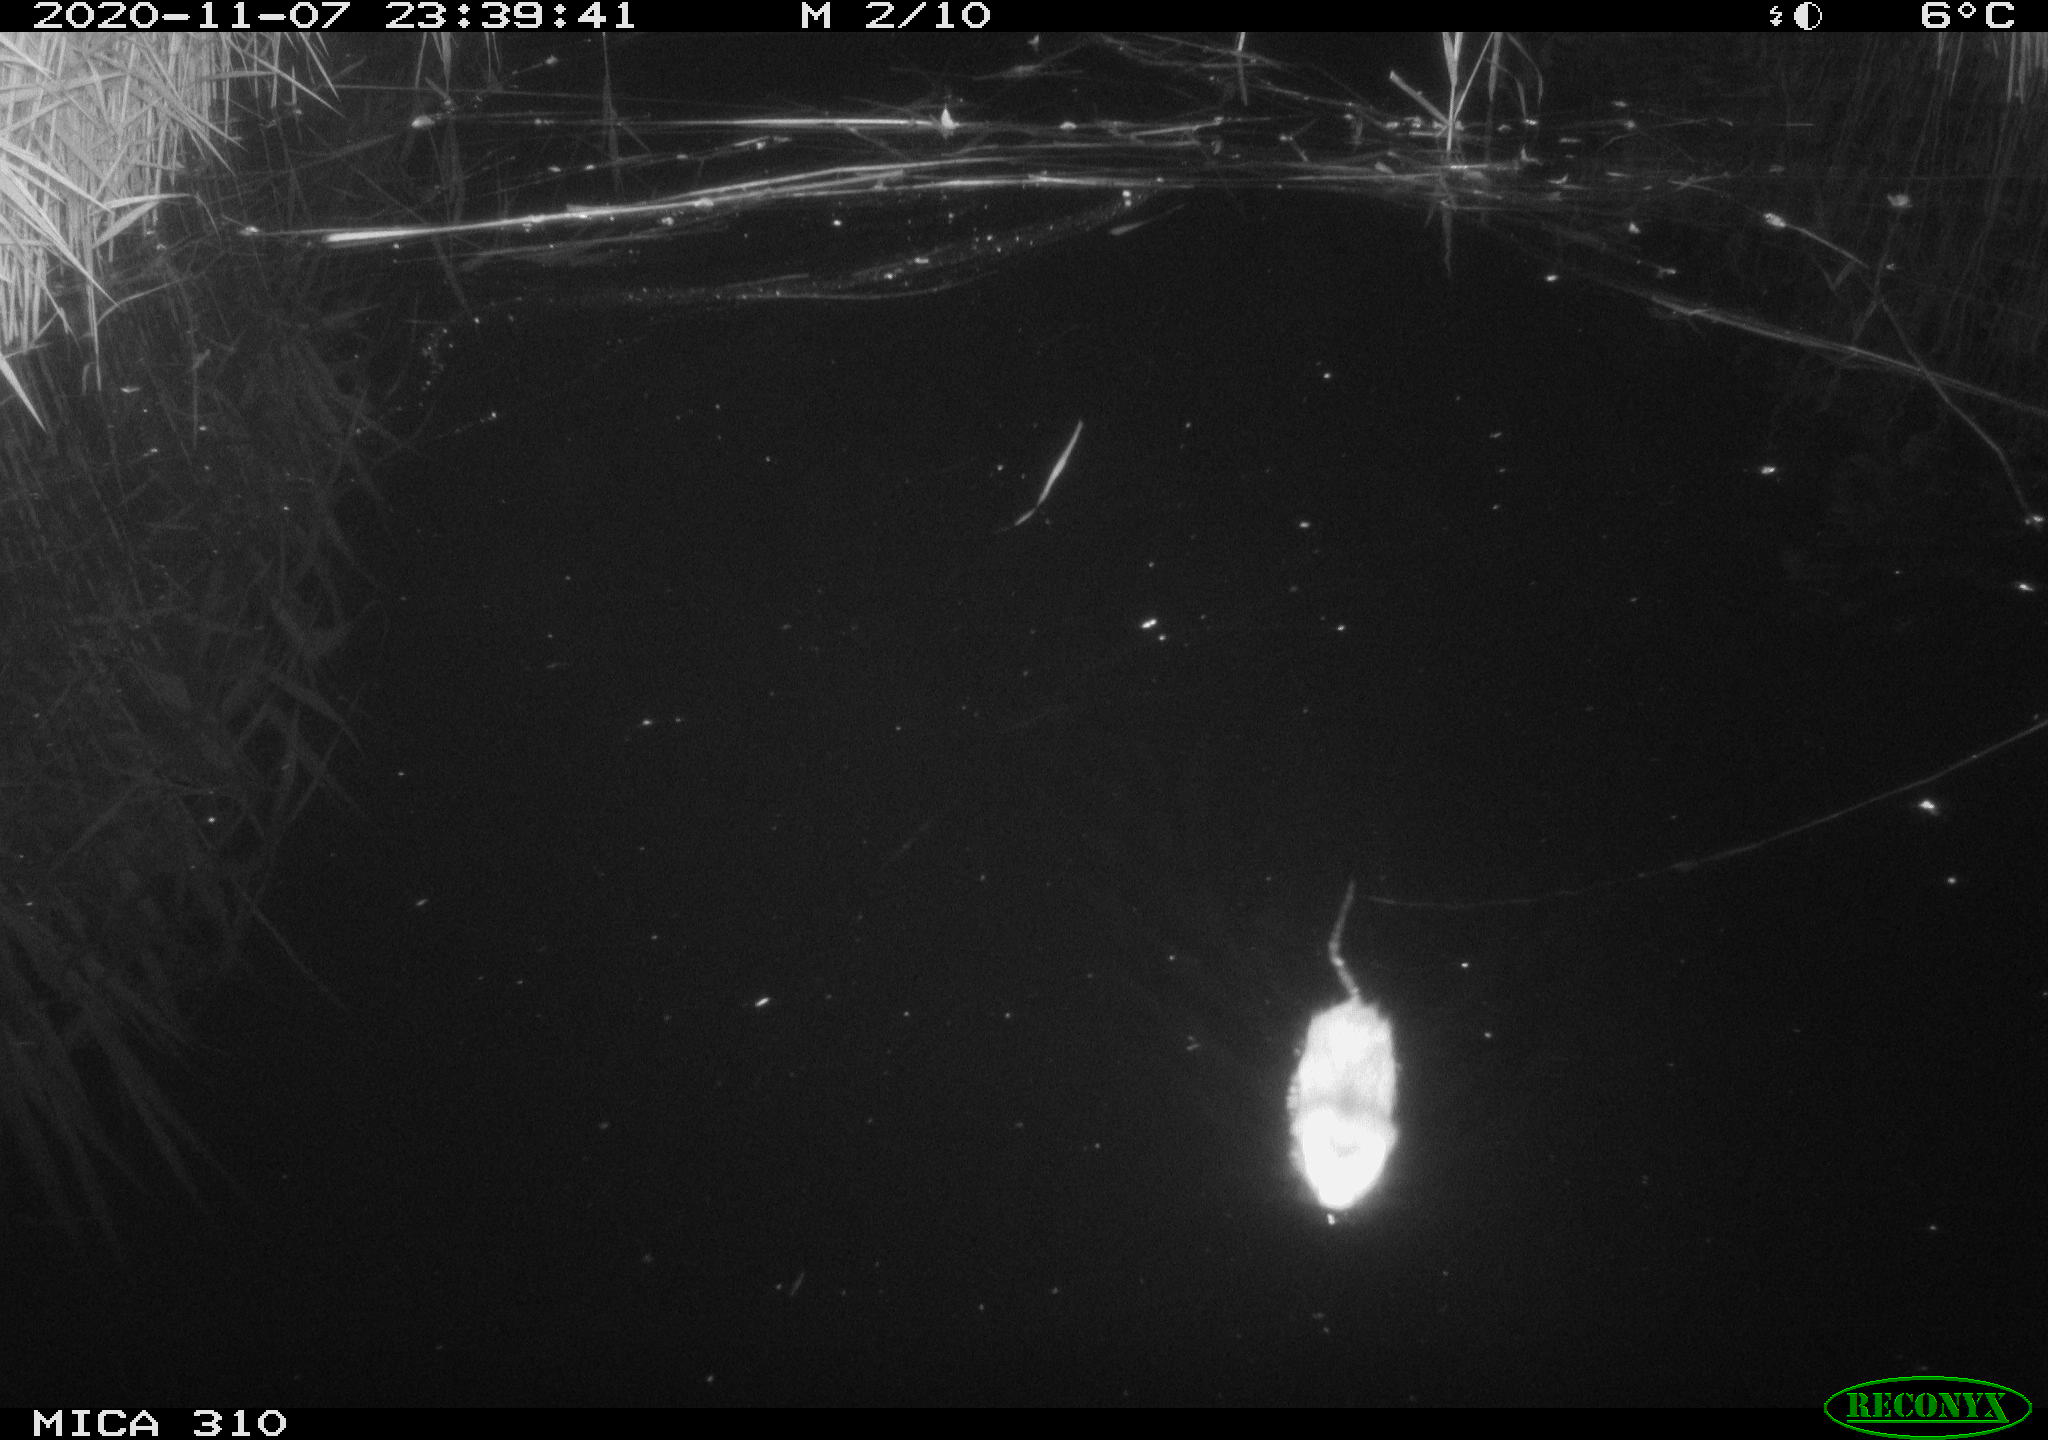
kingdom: Animalia
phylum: Chordata
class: Mammalia
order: Rodentia
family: Muridae
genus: Rattus
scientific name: Rattus norvegicus
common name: Brown rat
